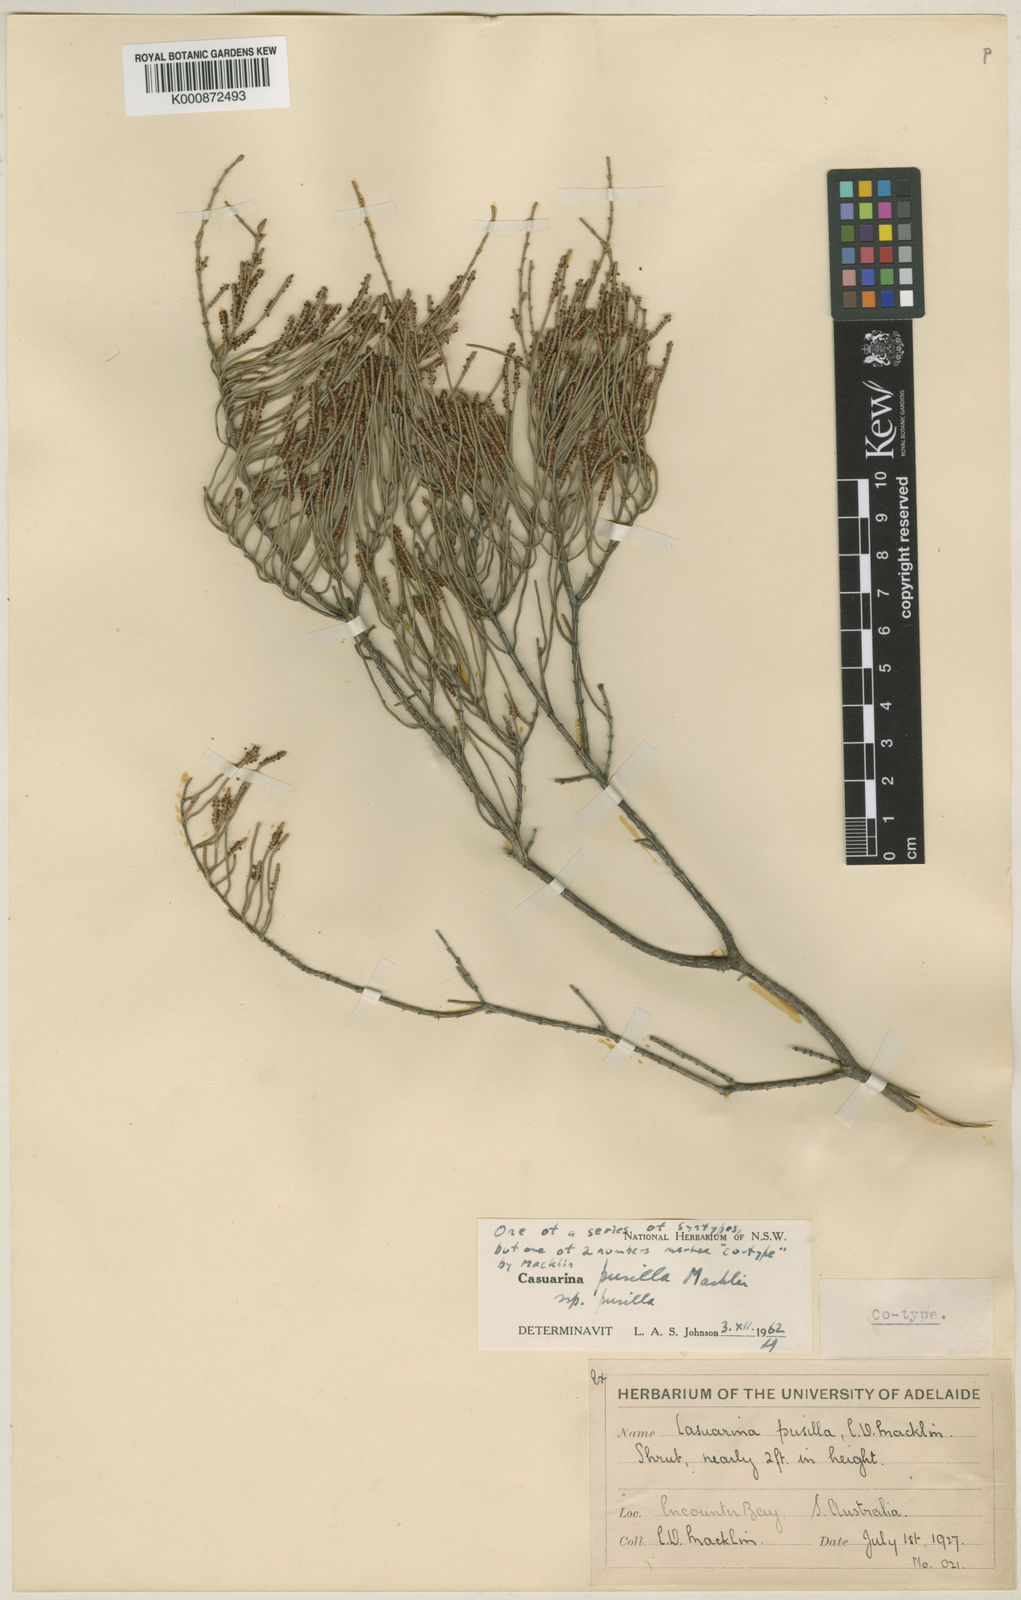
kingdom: Plantae
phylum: Tracheophyta
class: Magnoliopsida
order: Fagales
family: Casuarinaceae
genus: Allocasuarina
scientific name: Allocasuarina pusilla
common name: Dwarf she-oak
